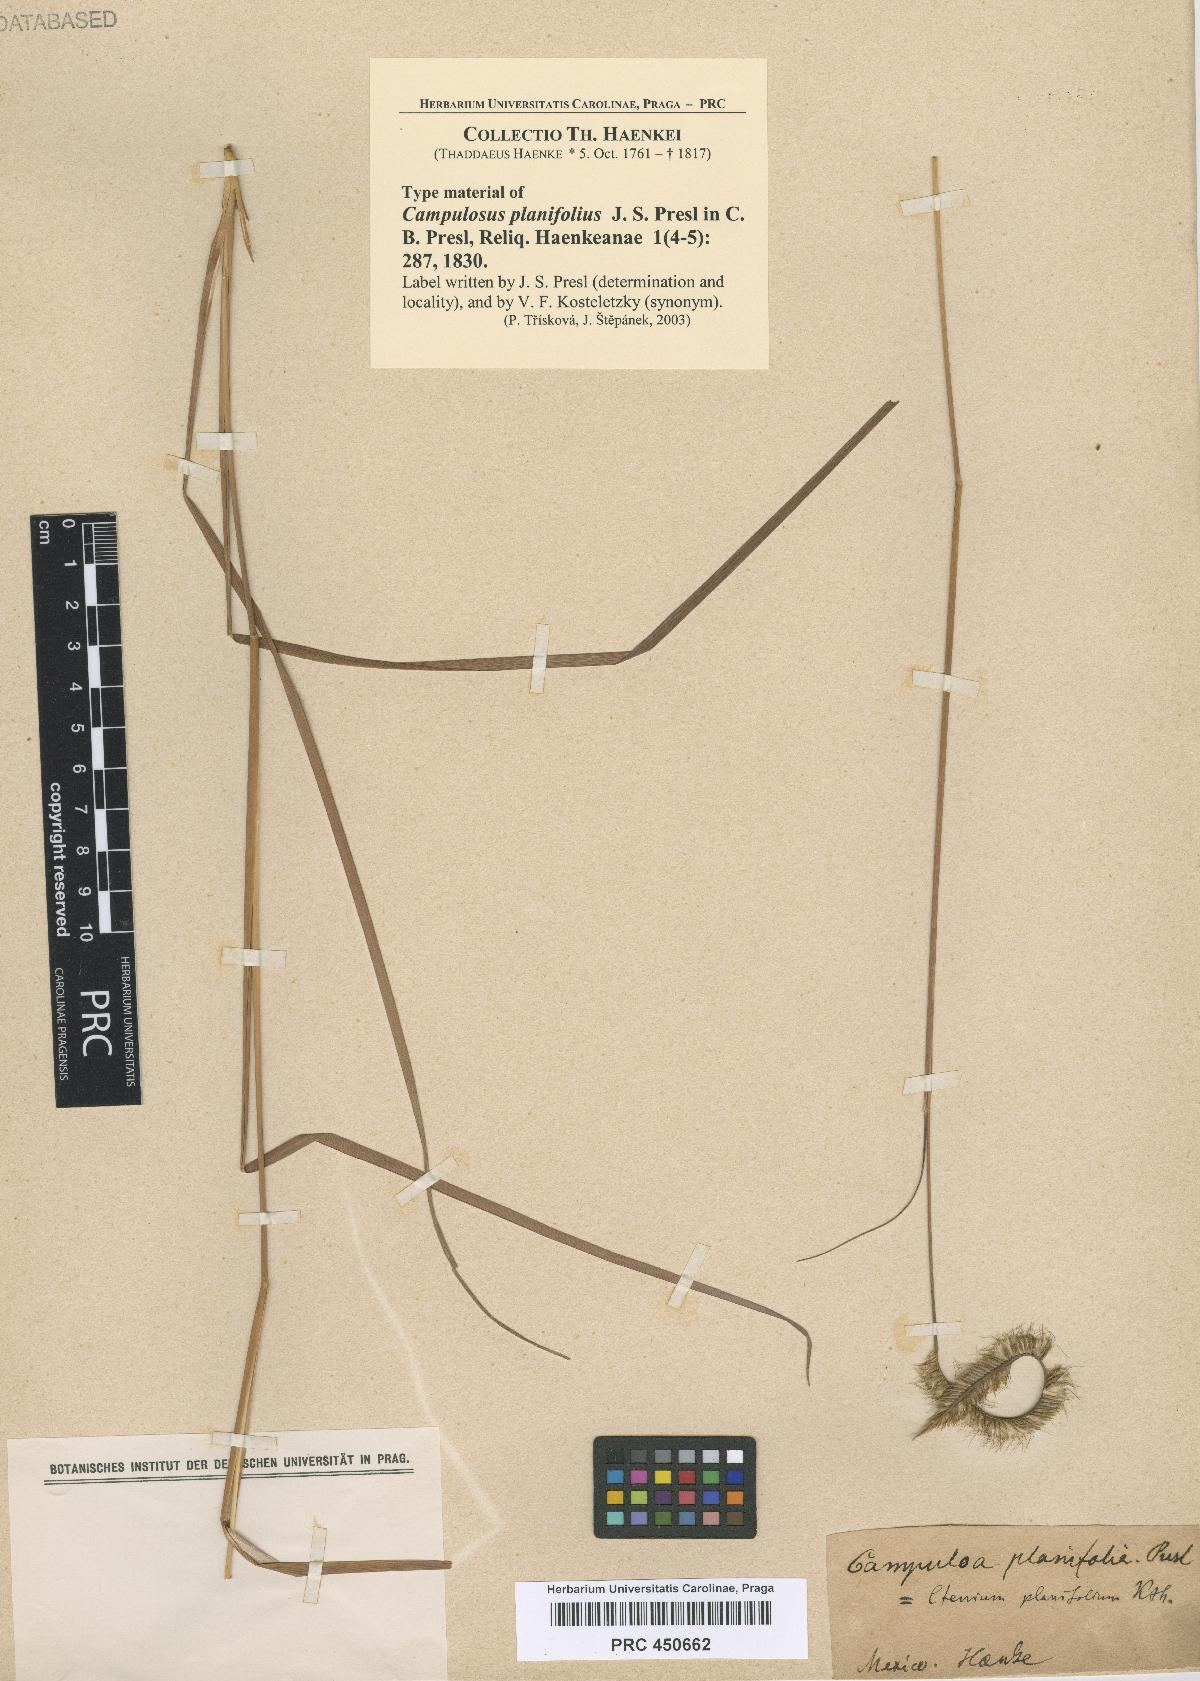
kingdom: Plantae
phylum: Tracheophyta
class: Liliopsida
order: Poales
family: Poaceae
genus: Ctenium
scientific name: Ctenium planifolium
